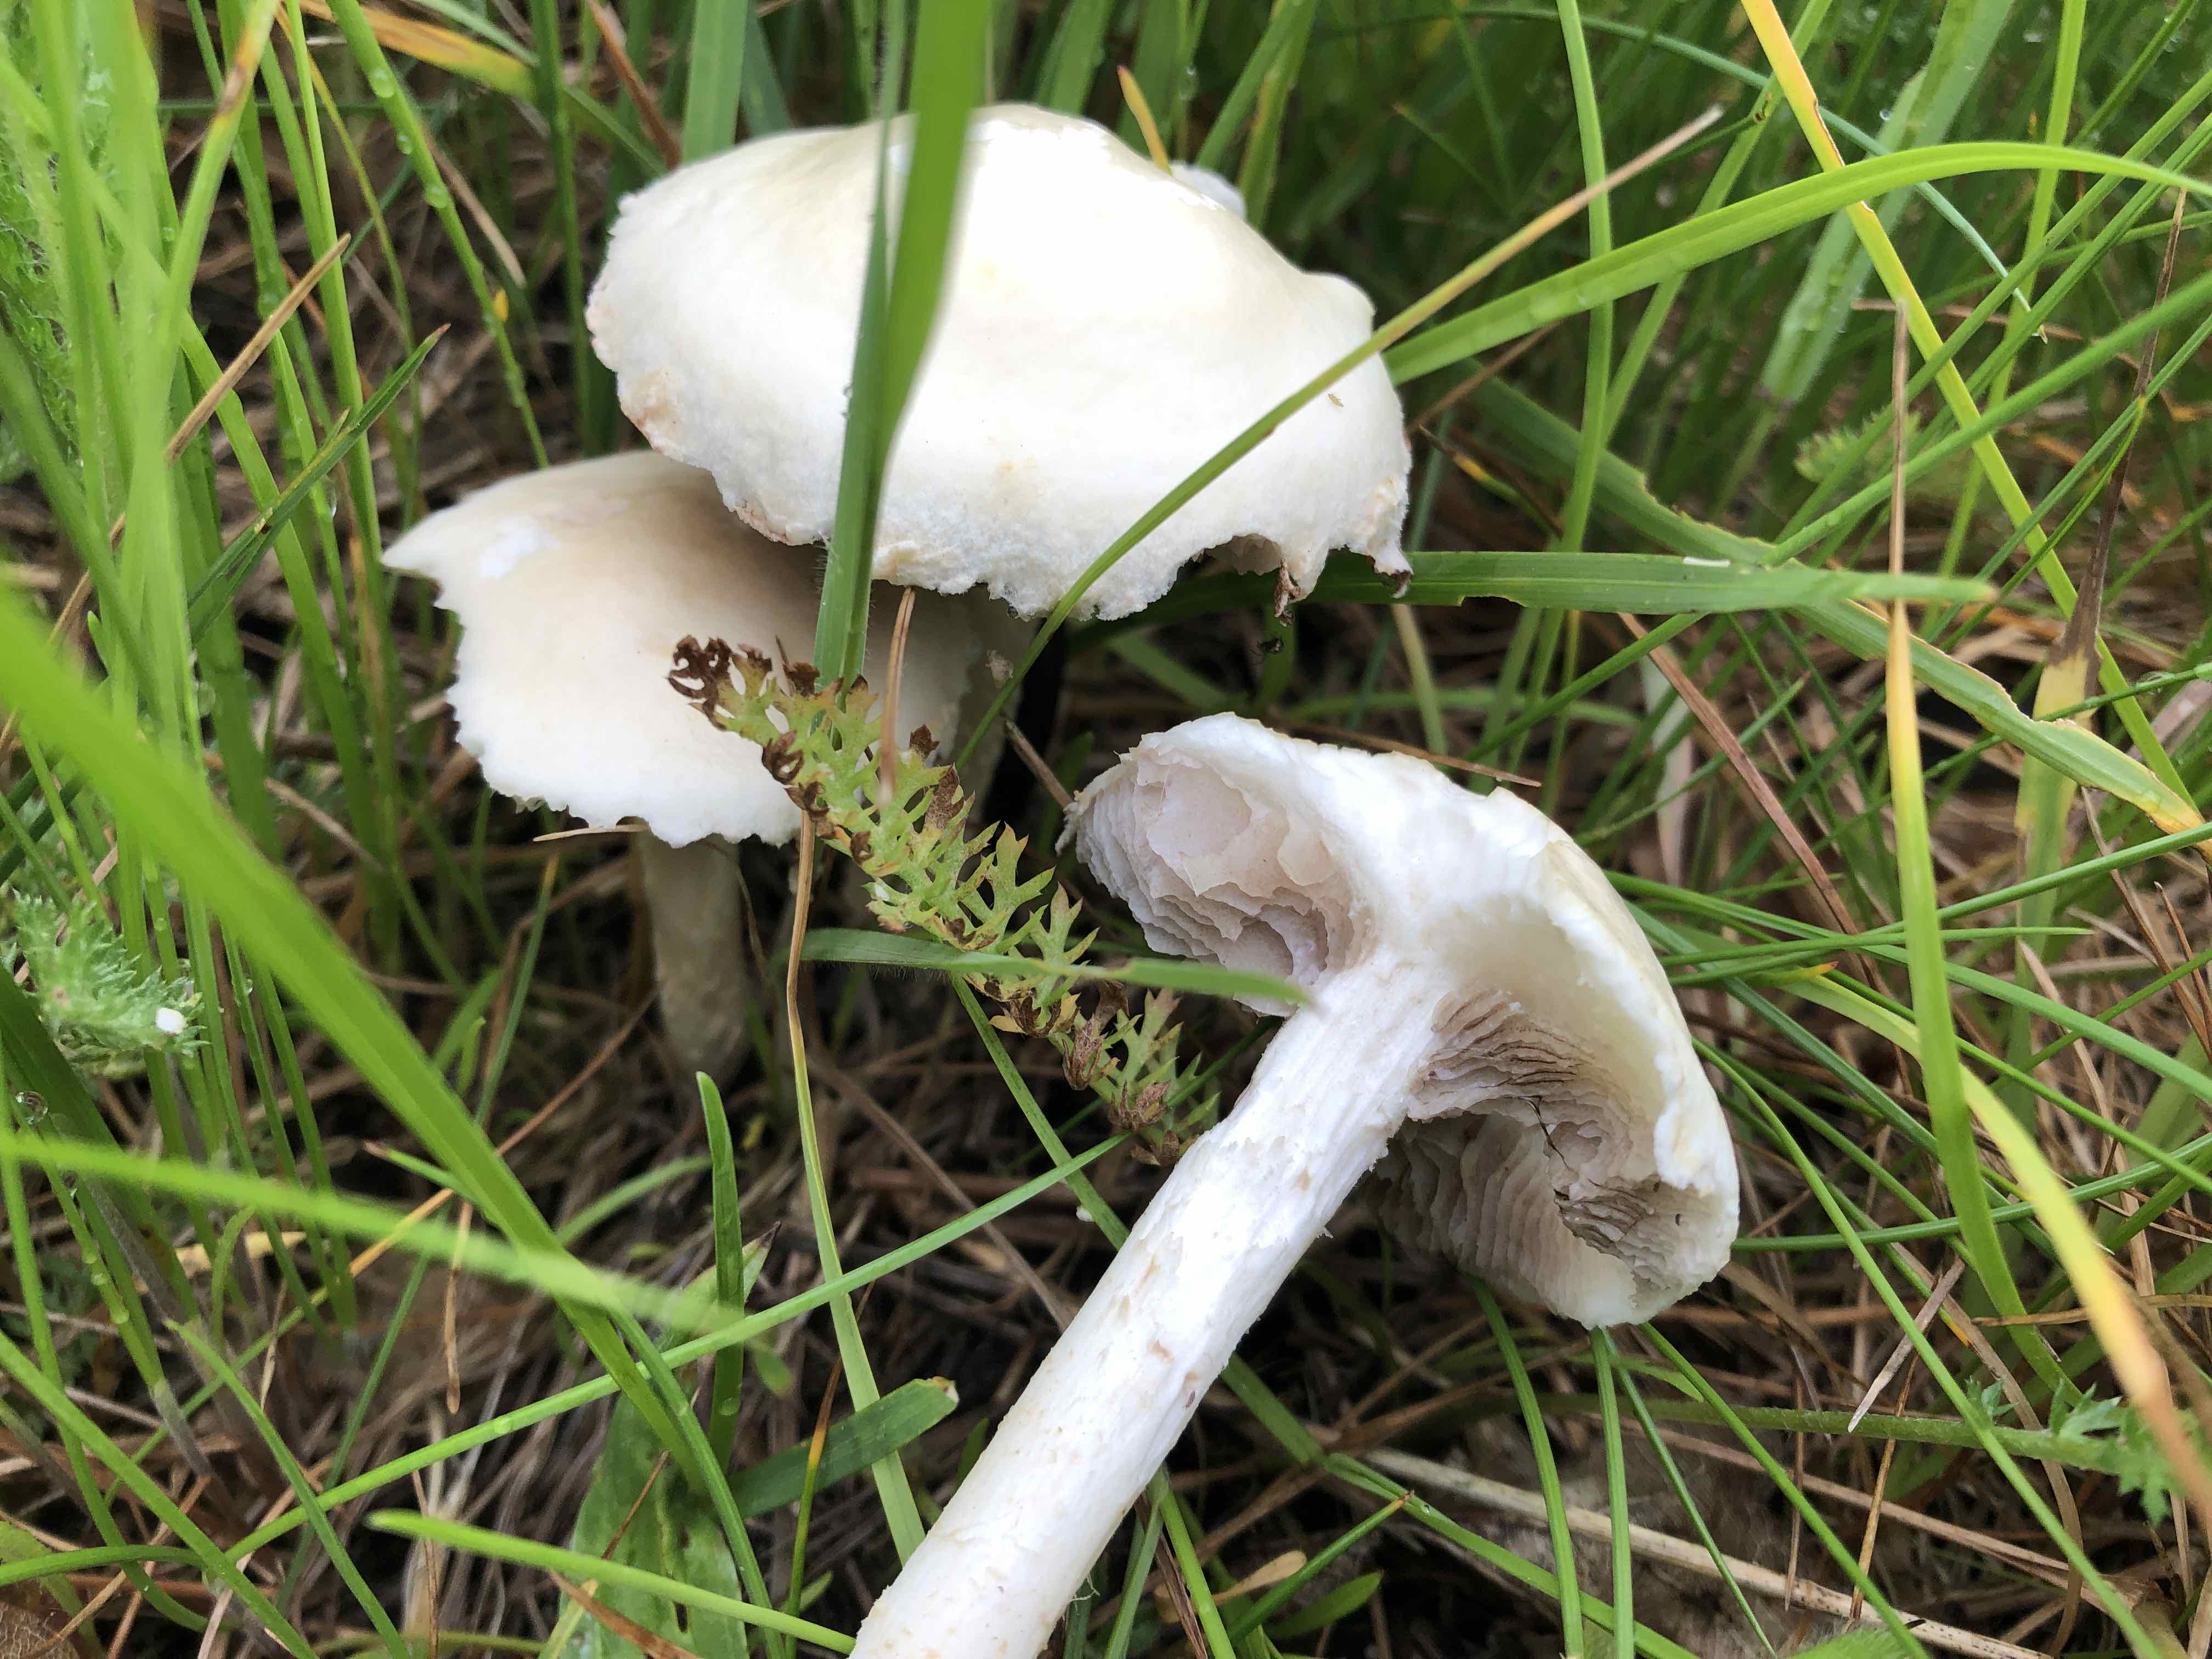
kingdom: Fungi
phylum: Basidiomycota
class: Agaricomycetes
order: Agaricales
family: Strophariaceae
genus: Agrocybe
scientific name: Agrocybe dura
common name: fastkødet agerhat
